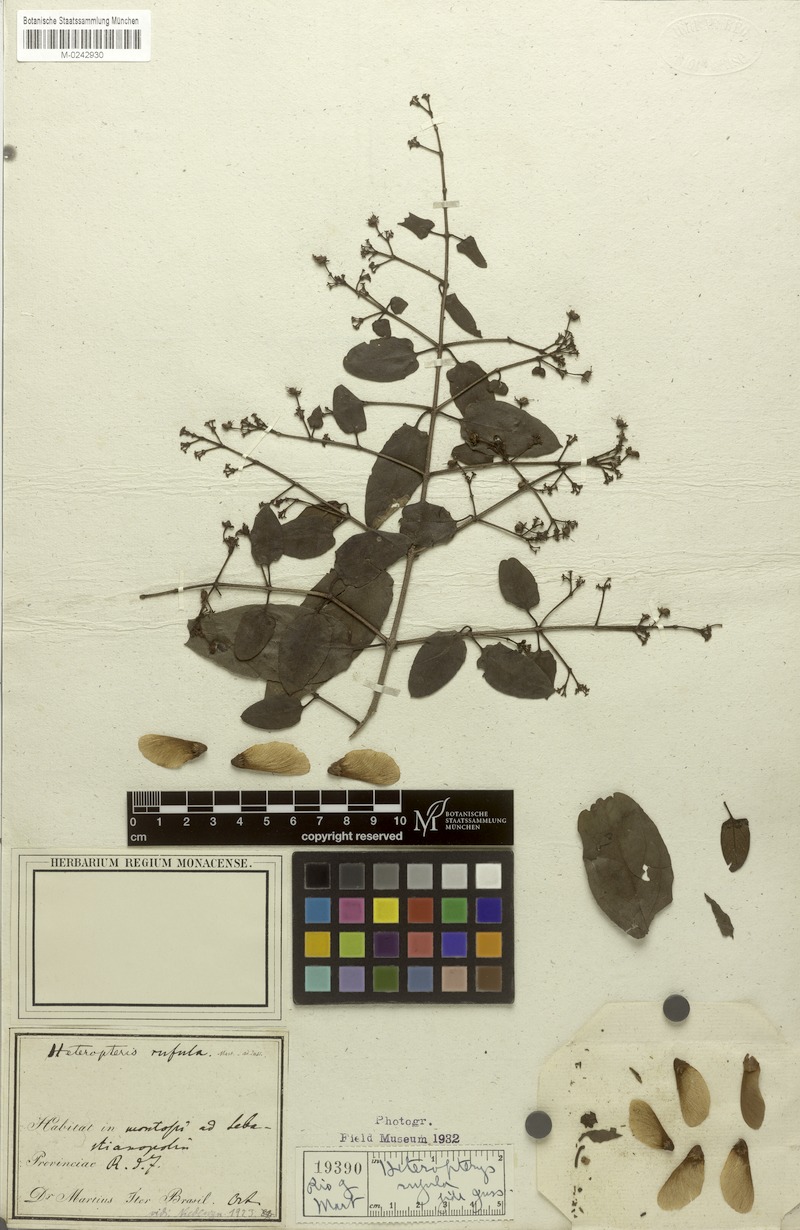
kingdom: Plantae
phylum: Tracheophyta
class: Magnoliopsida
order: Malpighiales
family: Malpighiaceae
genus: Heteropterys
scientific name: Heteropterys rufula
